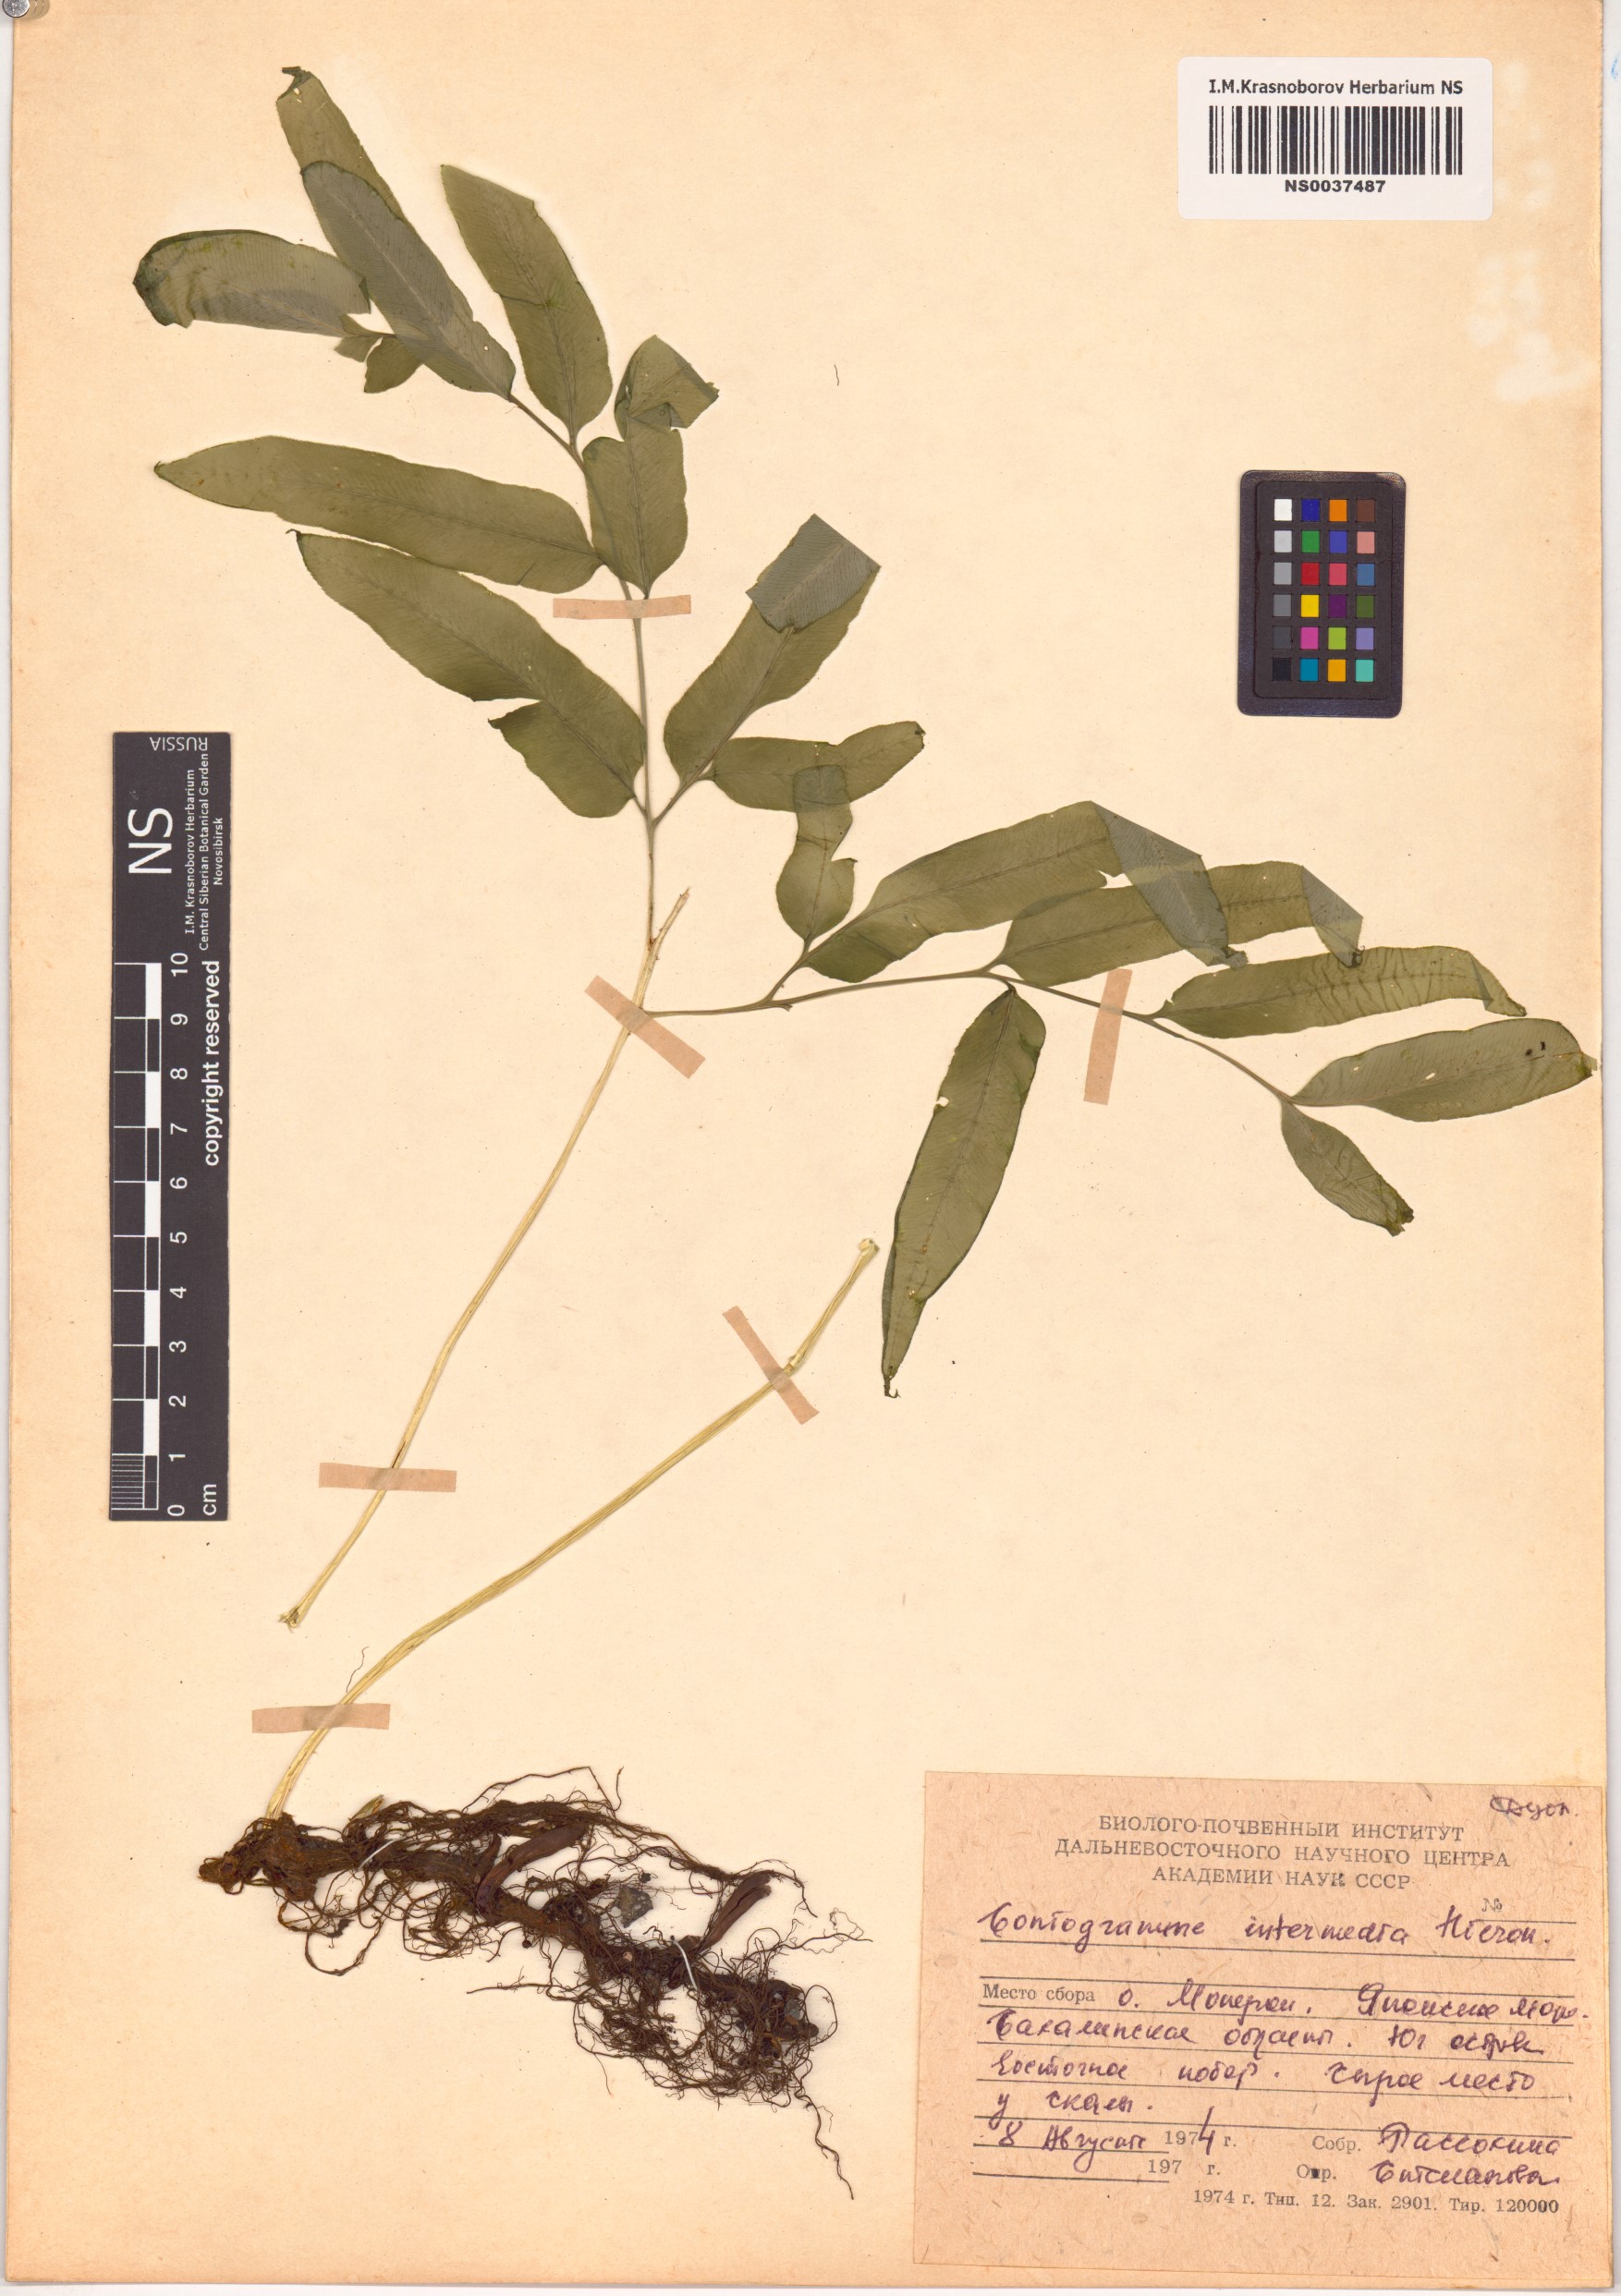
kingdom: Plantae
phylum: Tracheophyta
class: Polypodiopsida
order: Polypodiales
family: Pteridaceae
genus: Coniogramme
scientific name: Coniogramme intermedia
